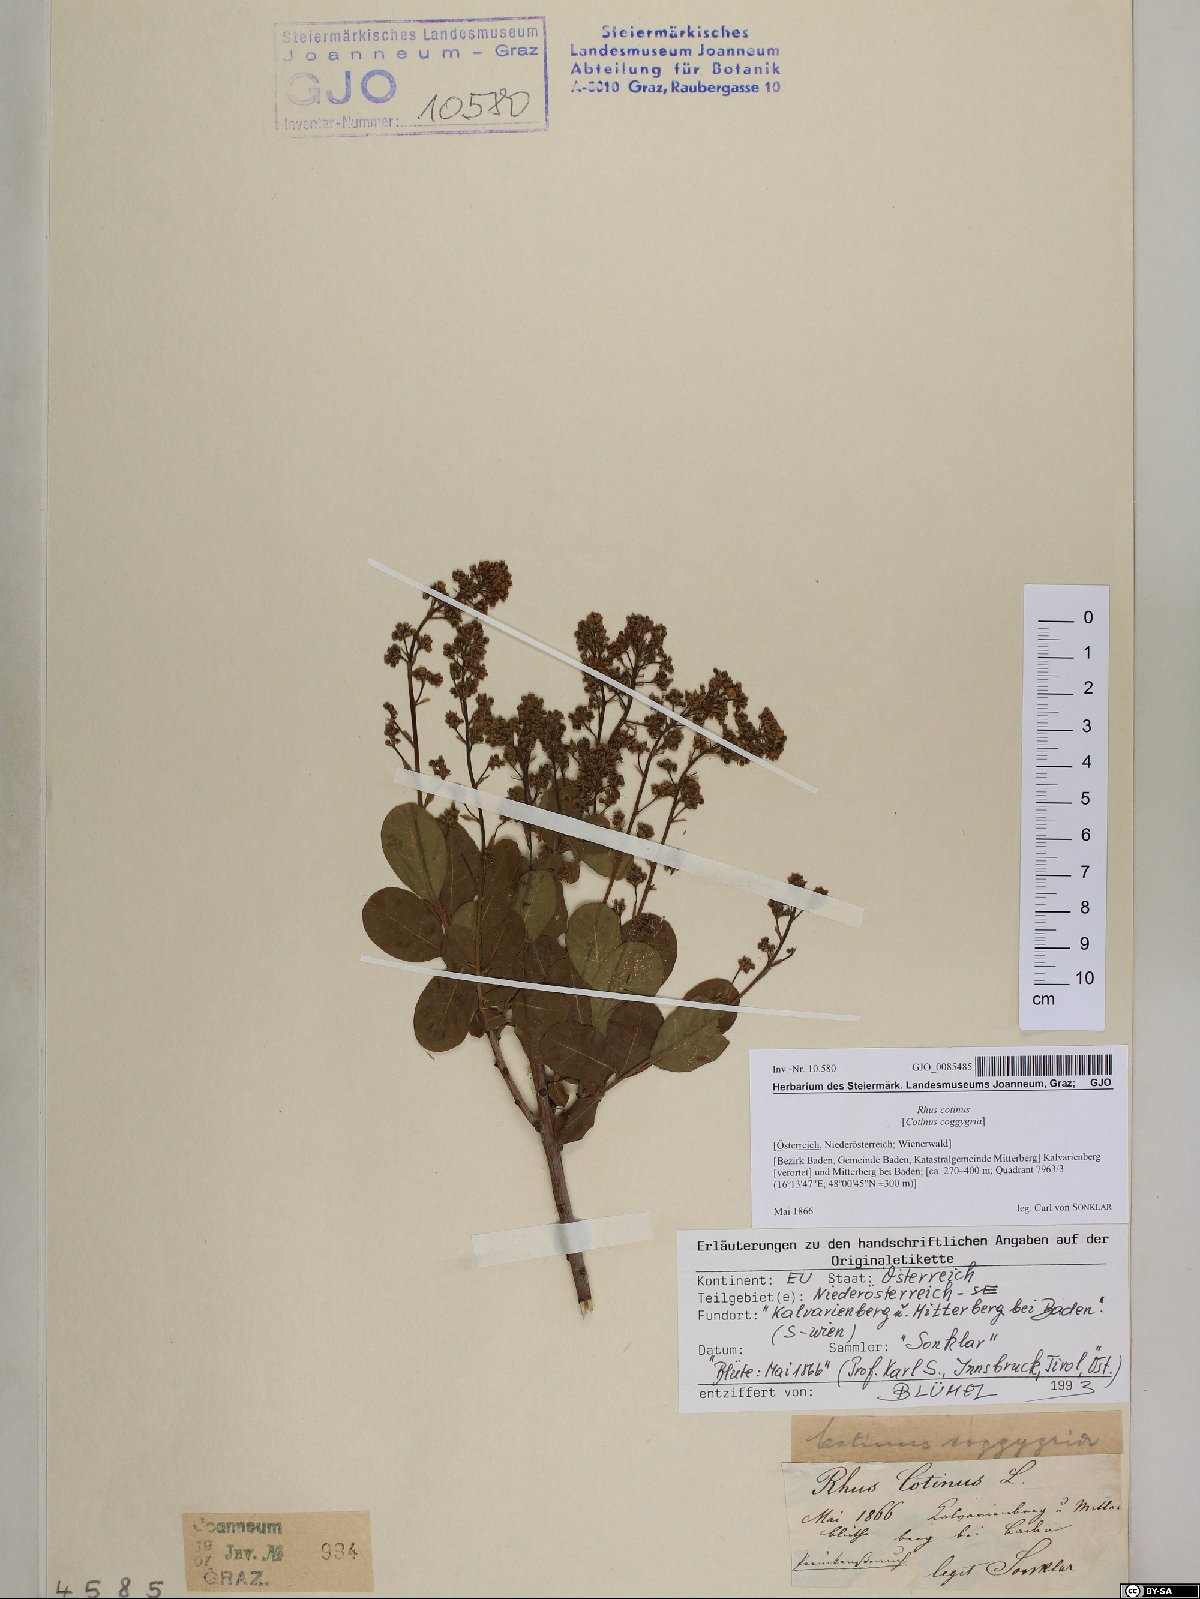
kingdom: Plantae
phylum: Tracheophyta
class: Magnoliopsida
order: Sapindales
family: Anacardiaceae
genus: Cotinus
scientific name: Cotinus coggygria
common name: Smoke-tree
